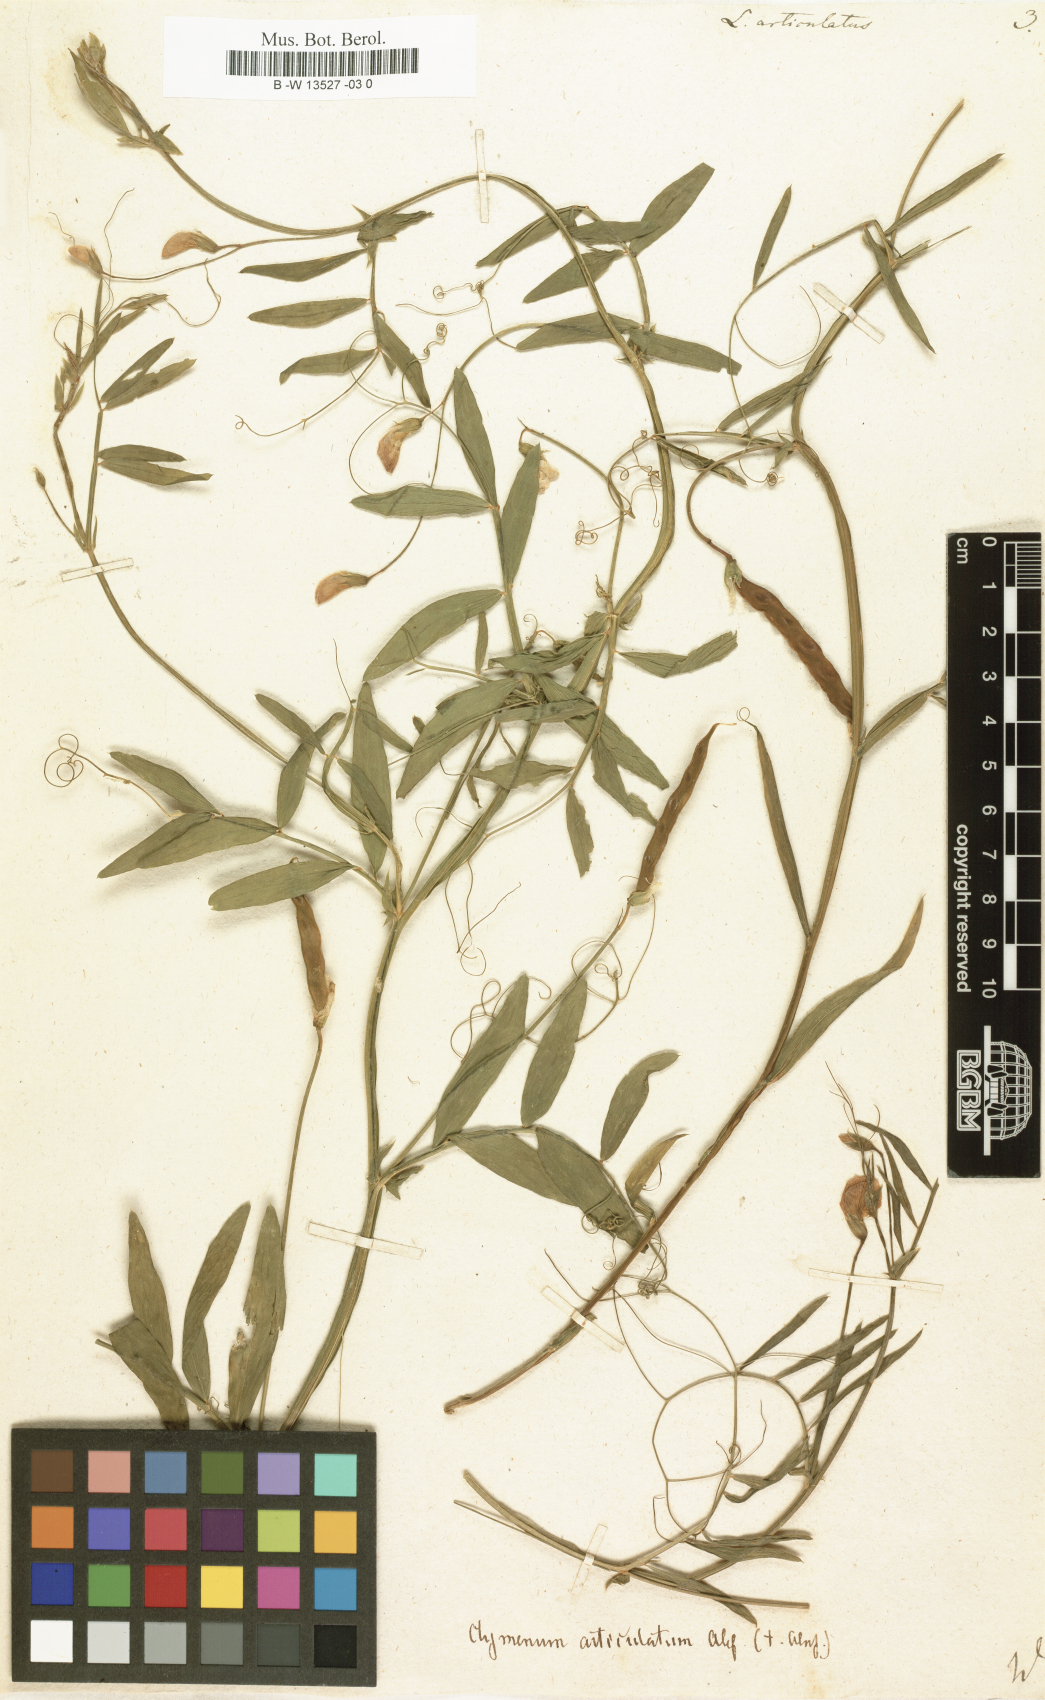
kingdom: Plantae
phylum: Tracheophyta
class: Magnoliopsida
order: Fabales
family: Fabaceae
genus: Lathyrus
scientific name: Lathyrus articulatus
